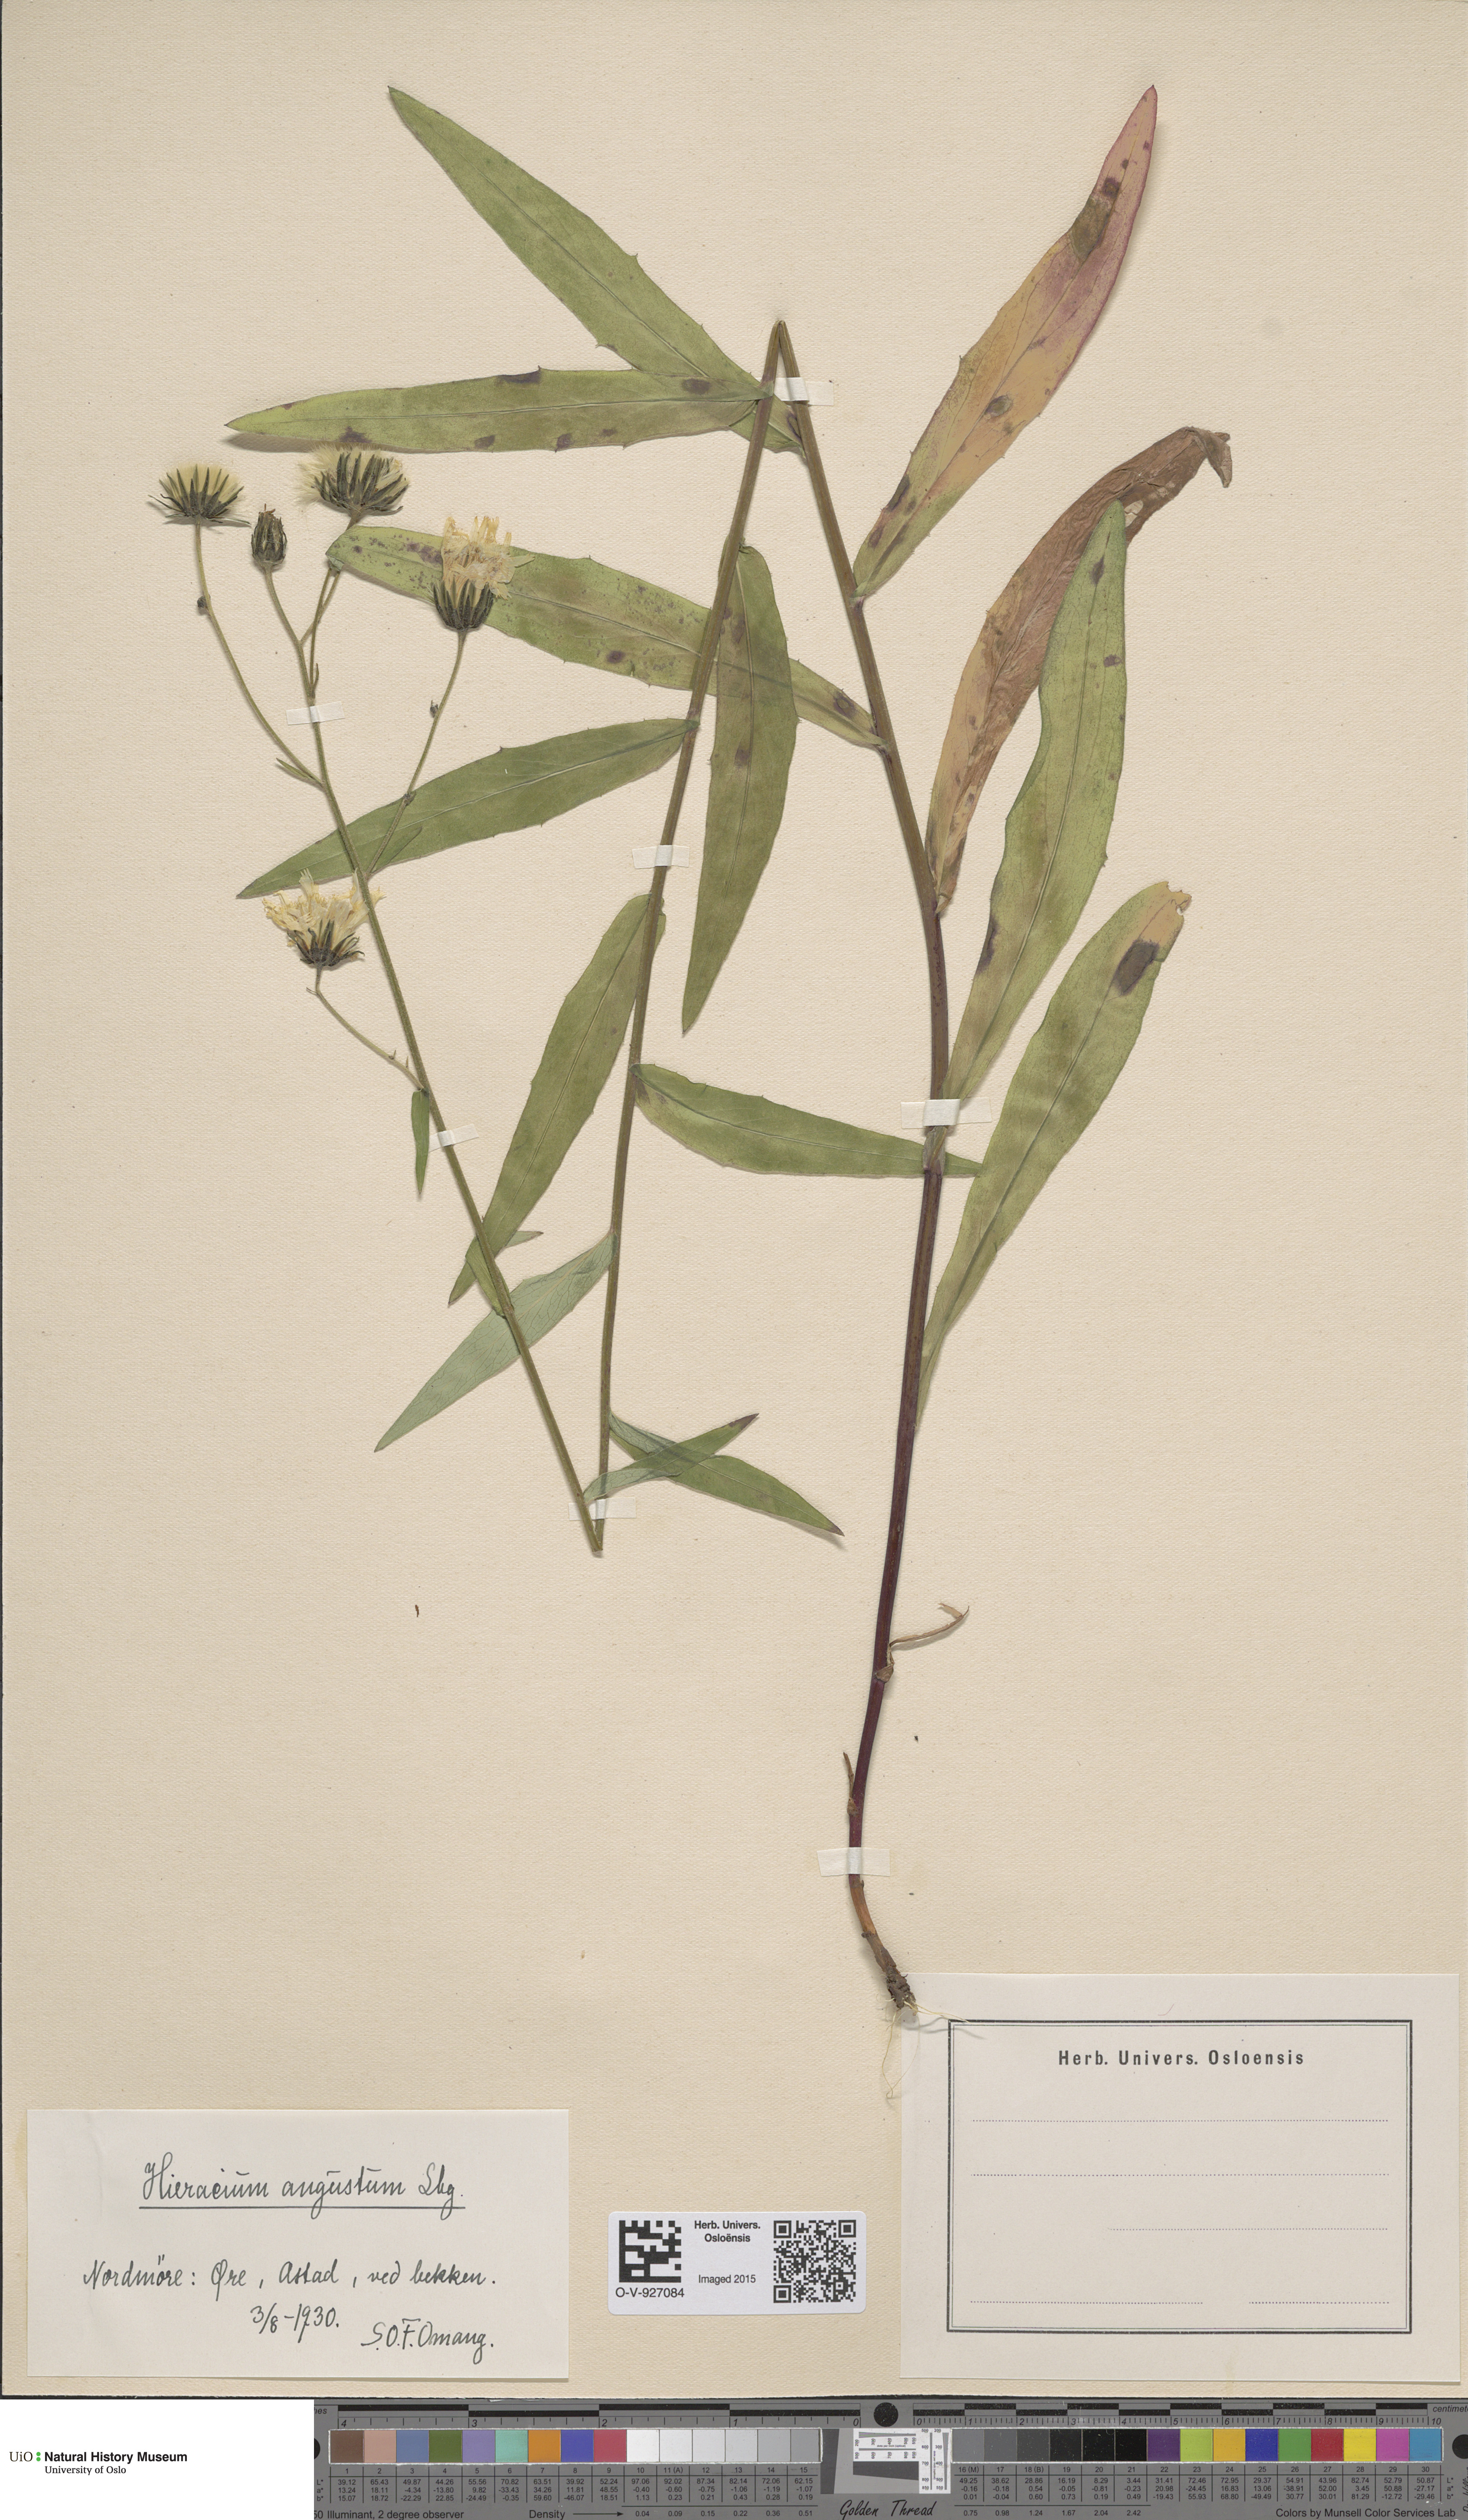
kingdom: Plantae
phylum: Tracheophyta
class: Magnoliopsida
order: Asterales
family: Asteraceae
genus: Hieracium
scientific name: Hieracium angustum
